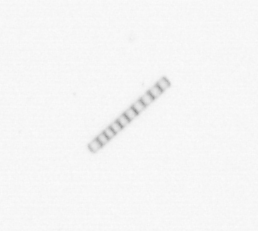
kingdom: Chromista
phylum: Ochrophyta
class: Bacillariophyceae
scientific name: Bacillariophyceae
